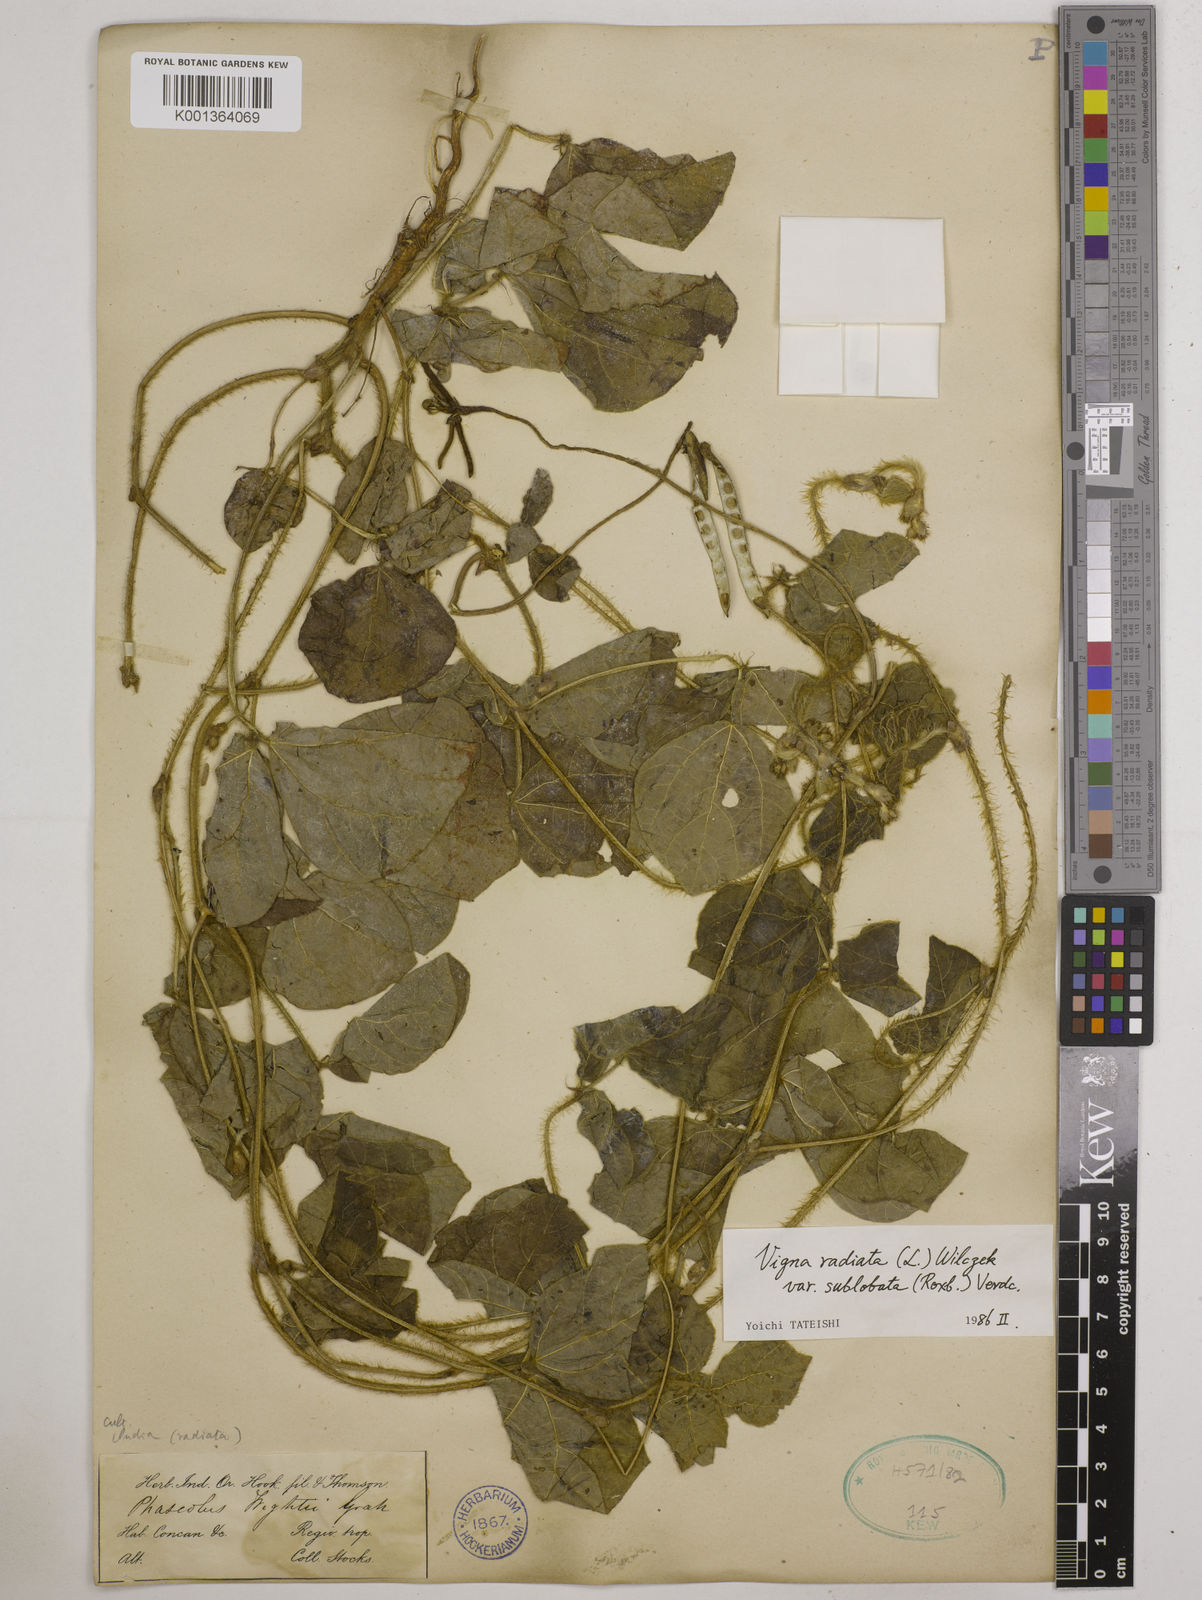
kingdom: Plantae
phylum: Tracheophyta
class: Magnoliopsida
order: Fabales
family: Fabaceae
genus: Vigna
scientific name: Vigna radiata
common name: Mung-bean
